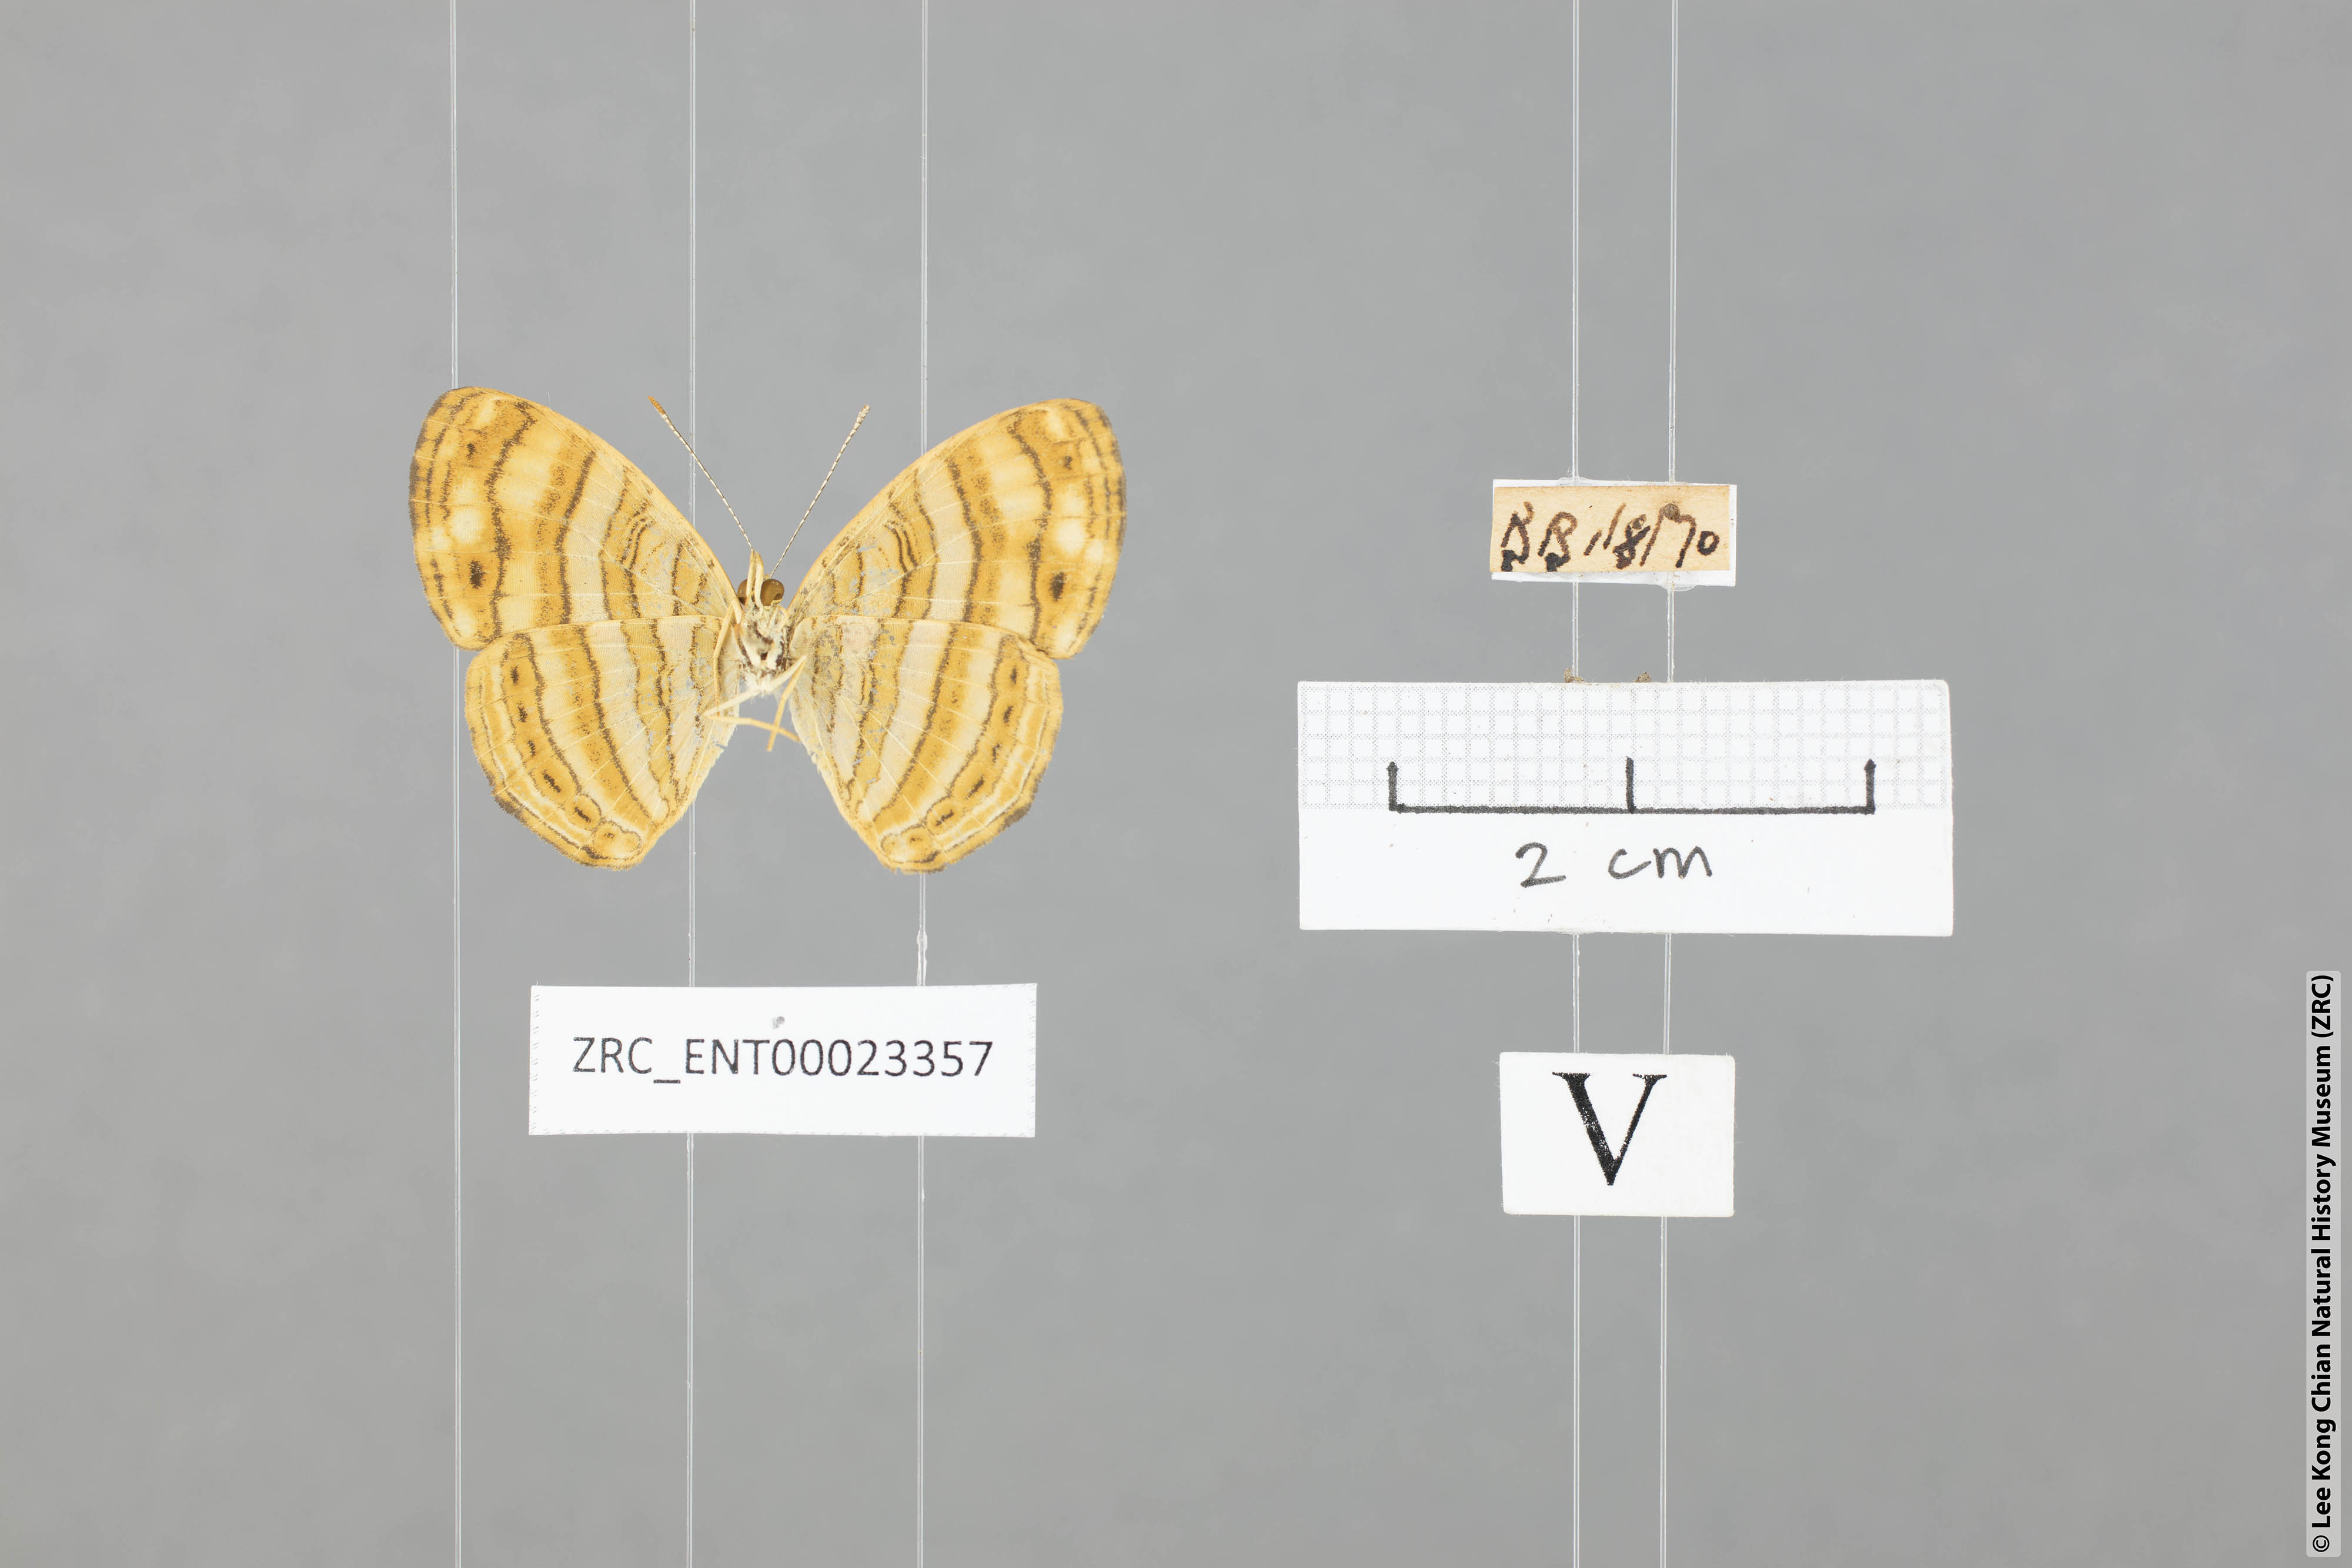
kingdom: Animalia
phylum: Arthropoda
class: Insecta
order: Lepidoptera
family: Nymphalidae
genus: Chersonesia
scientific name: Chersonesia peraka
